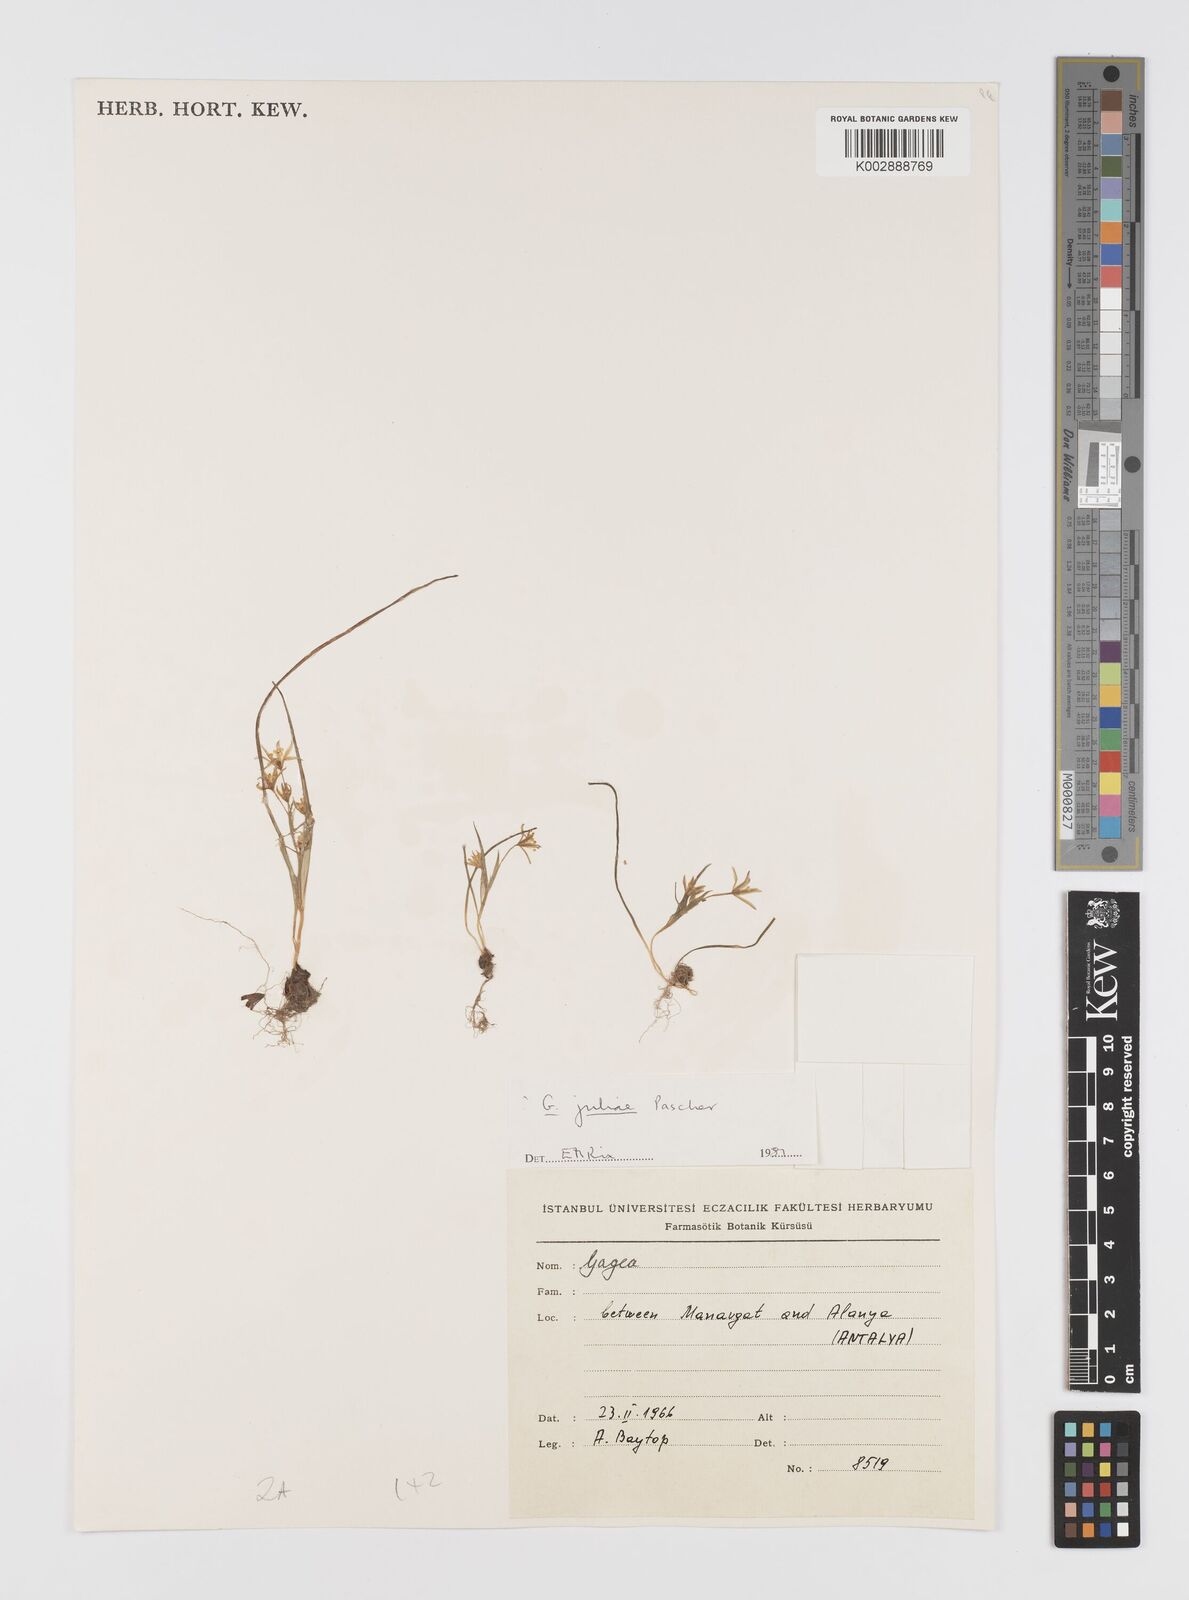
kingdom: Plantae
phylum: Tracheophyta
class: Liliopsida
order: Liliales
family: Liliaceae
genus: Gagea
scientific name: Gagea juliae
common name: Julia’s gagea
